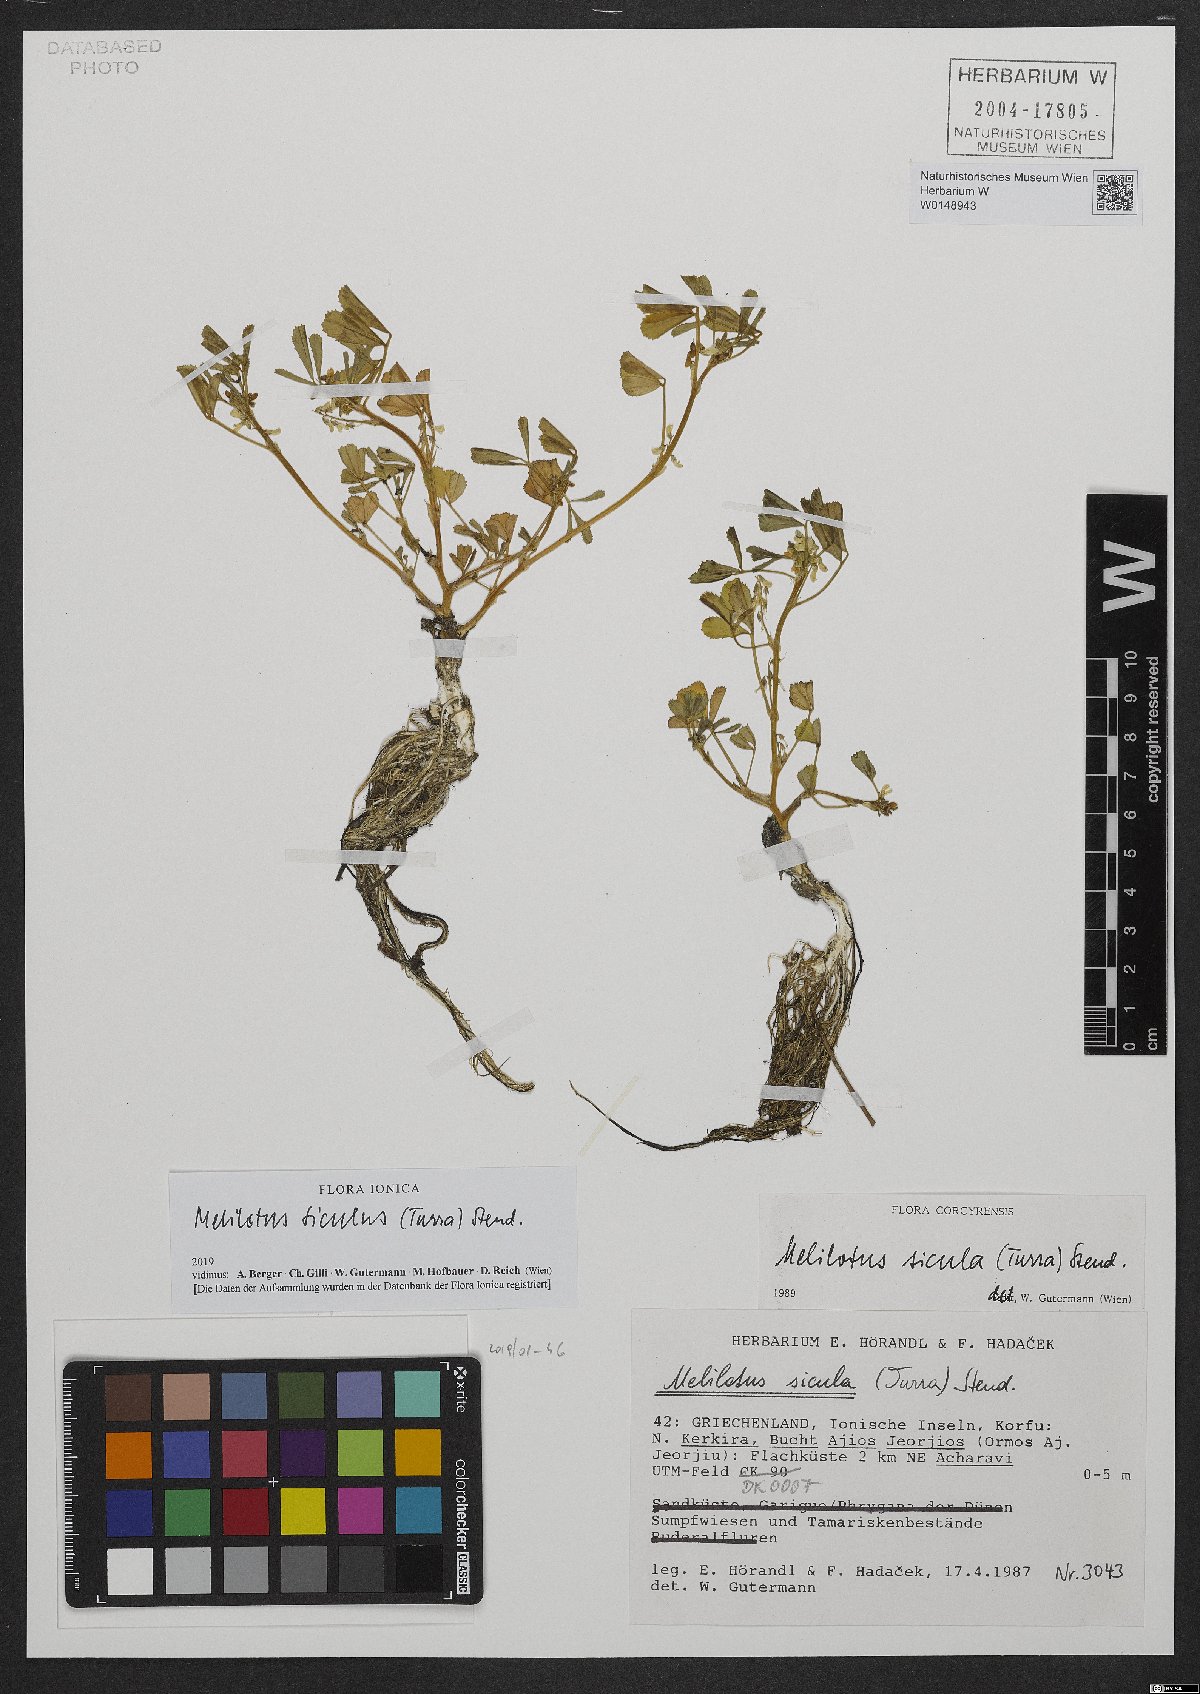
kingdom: Plantae
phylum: Tracheophyta
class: Magnoliopsida
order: Fabales
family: Fabaceae
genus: Melilotus
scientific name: Melilotus siculus
